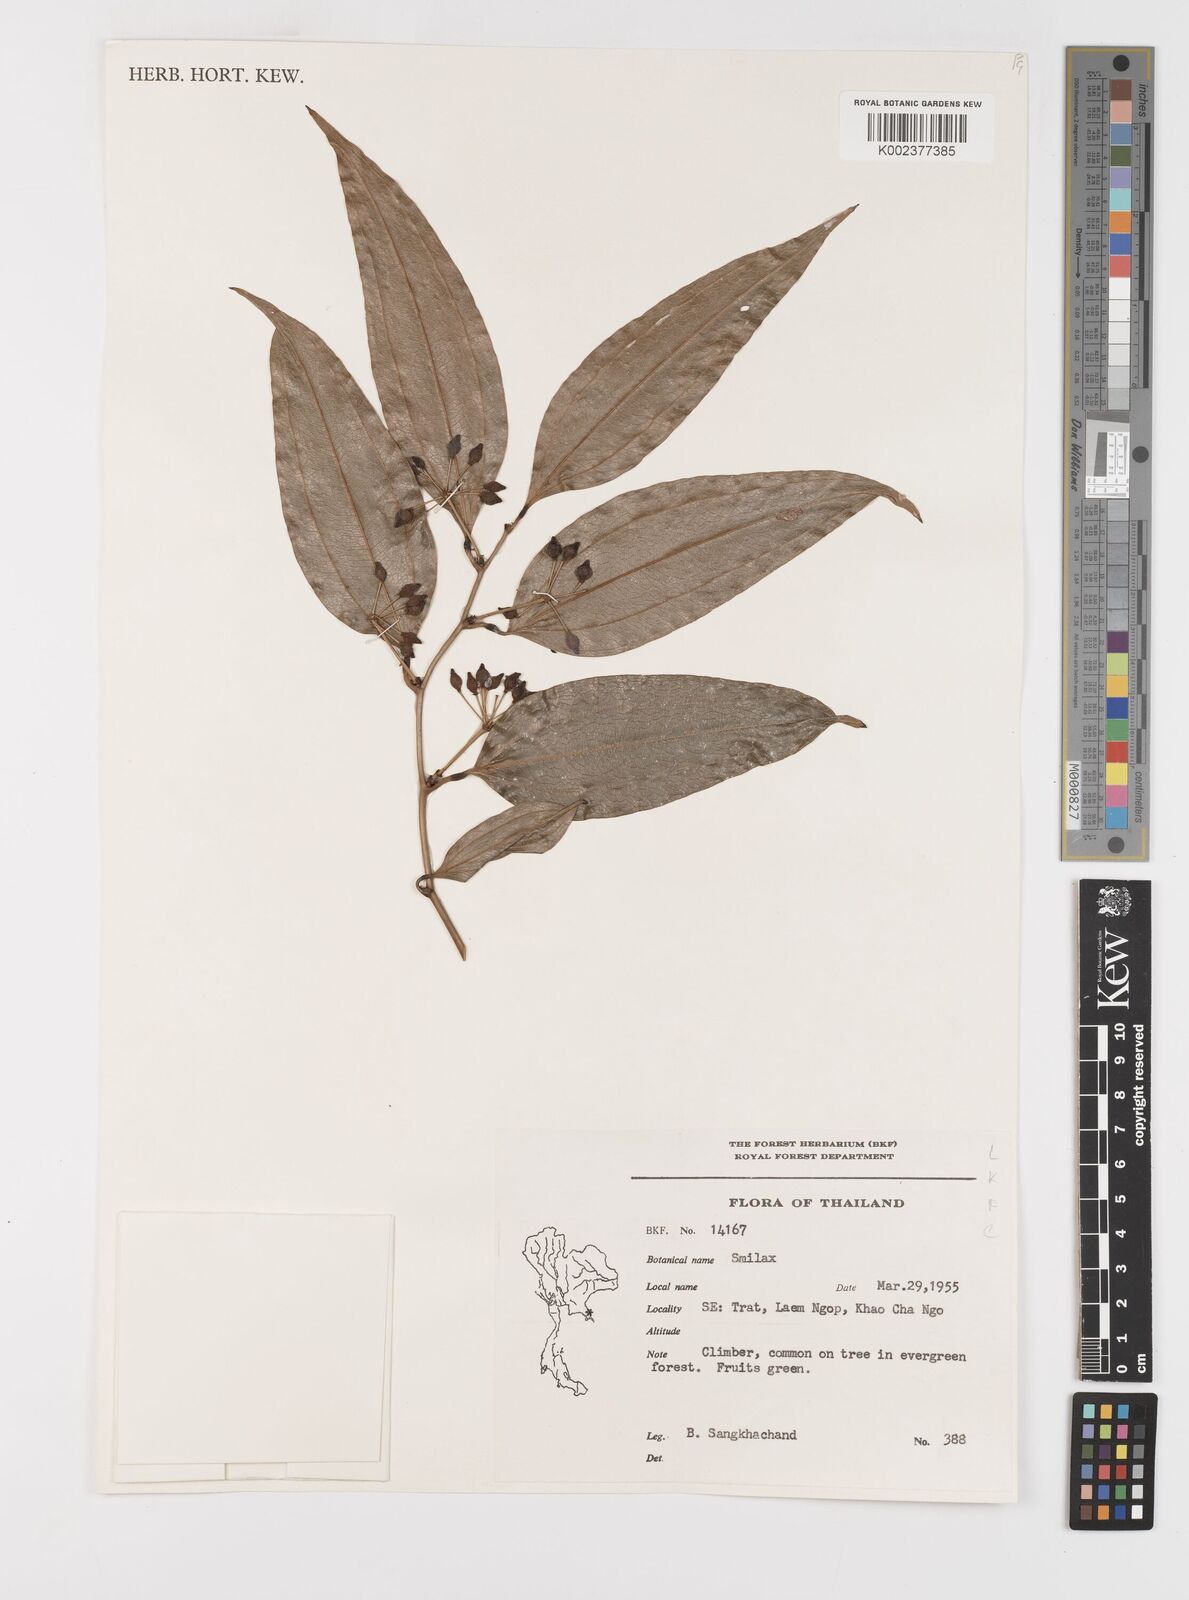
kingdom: Plantae
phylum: Tracheophyta
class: Liliopsida
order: Liliales
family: Smilacaceae
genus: Smilax
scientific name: Smilax
